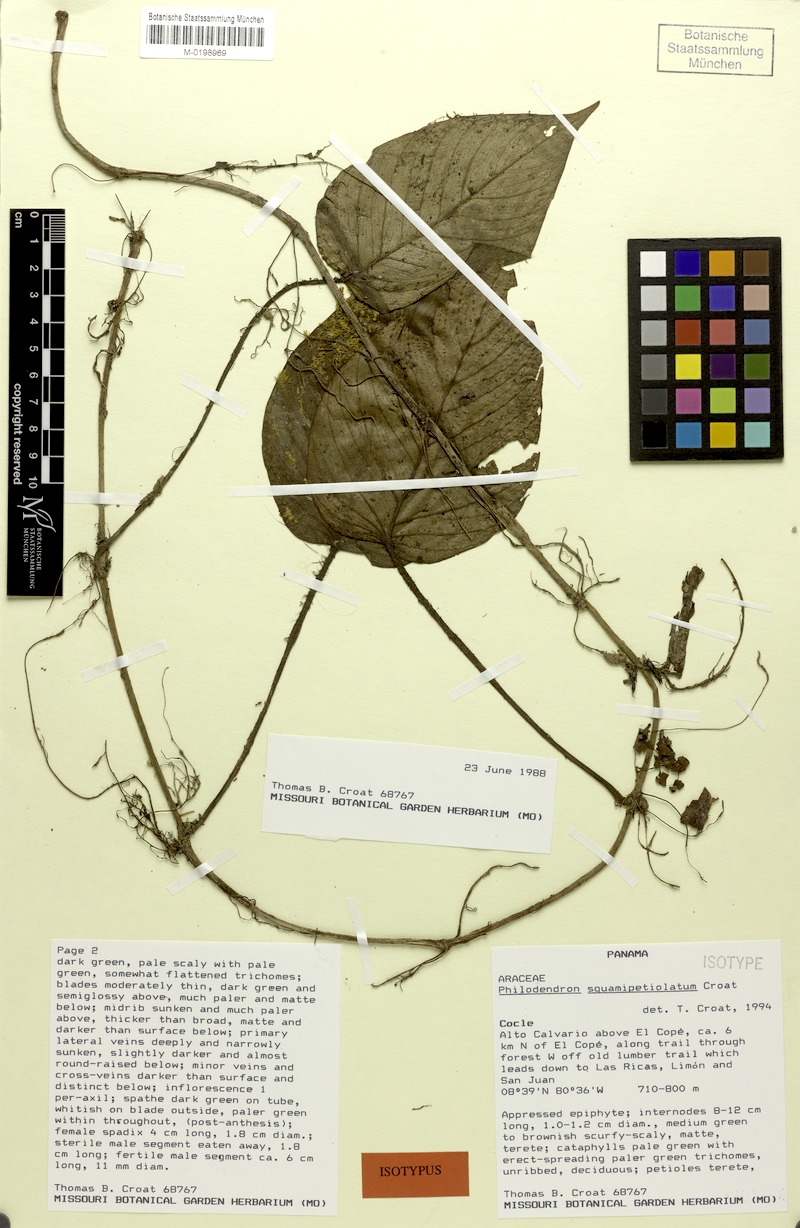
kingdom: Plantae
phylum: Tracheophyta
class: Liliopsida
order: Alismatales
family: Araceae
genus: Philodendron
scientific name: Philodendron squamipetiolatum
